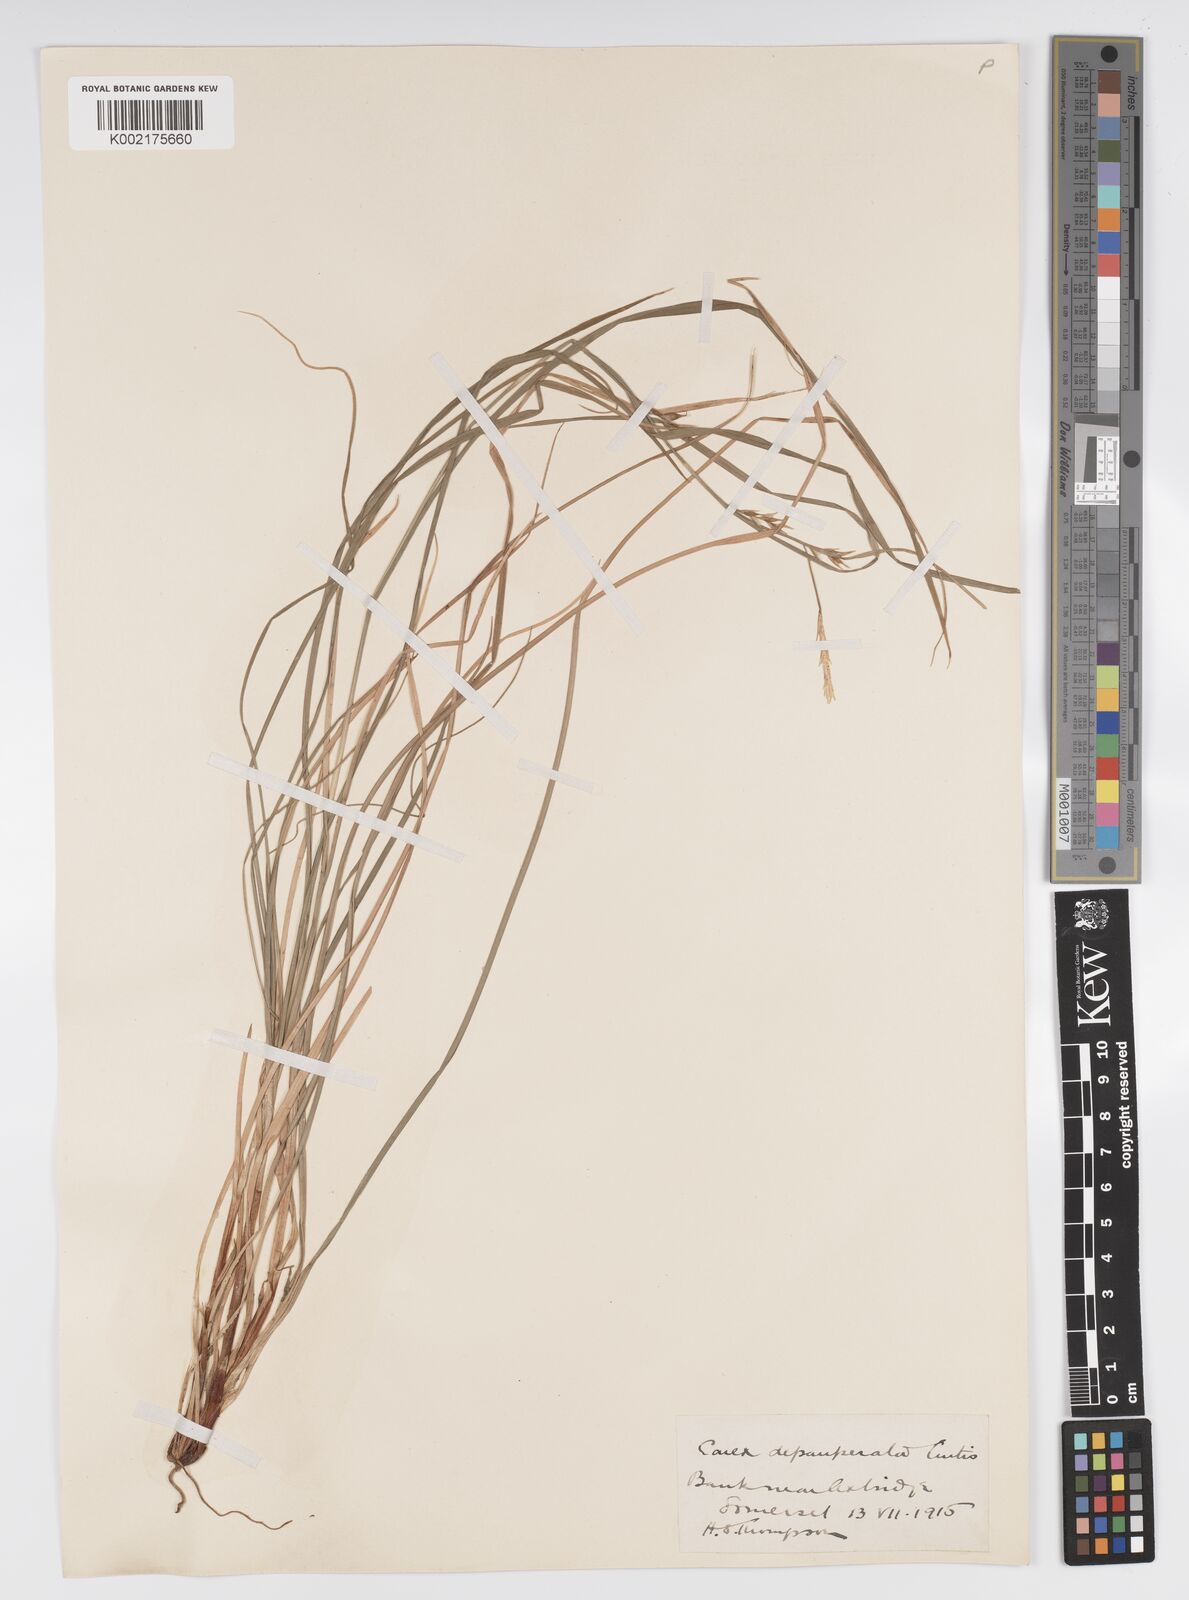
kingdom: Plantae
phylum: Tracheophyta
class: Liliopsida
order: Poales
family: Cyperaceae
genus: Carex
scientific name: Carex depauperata
